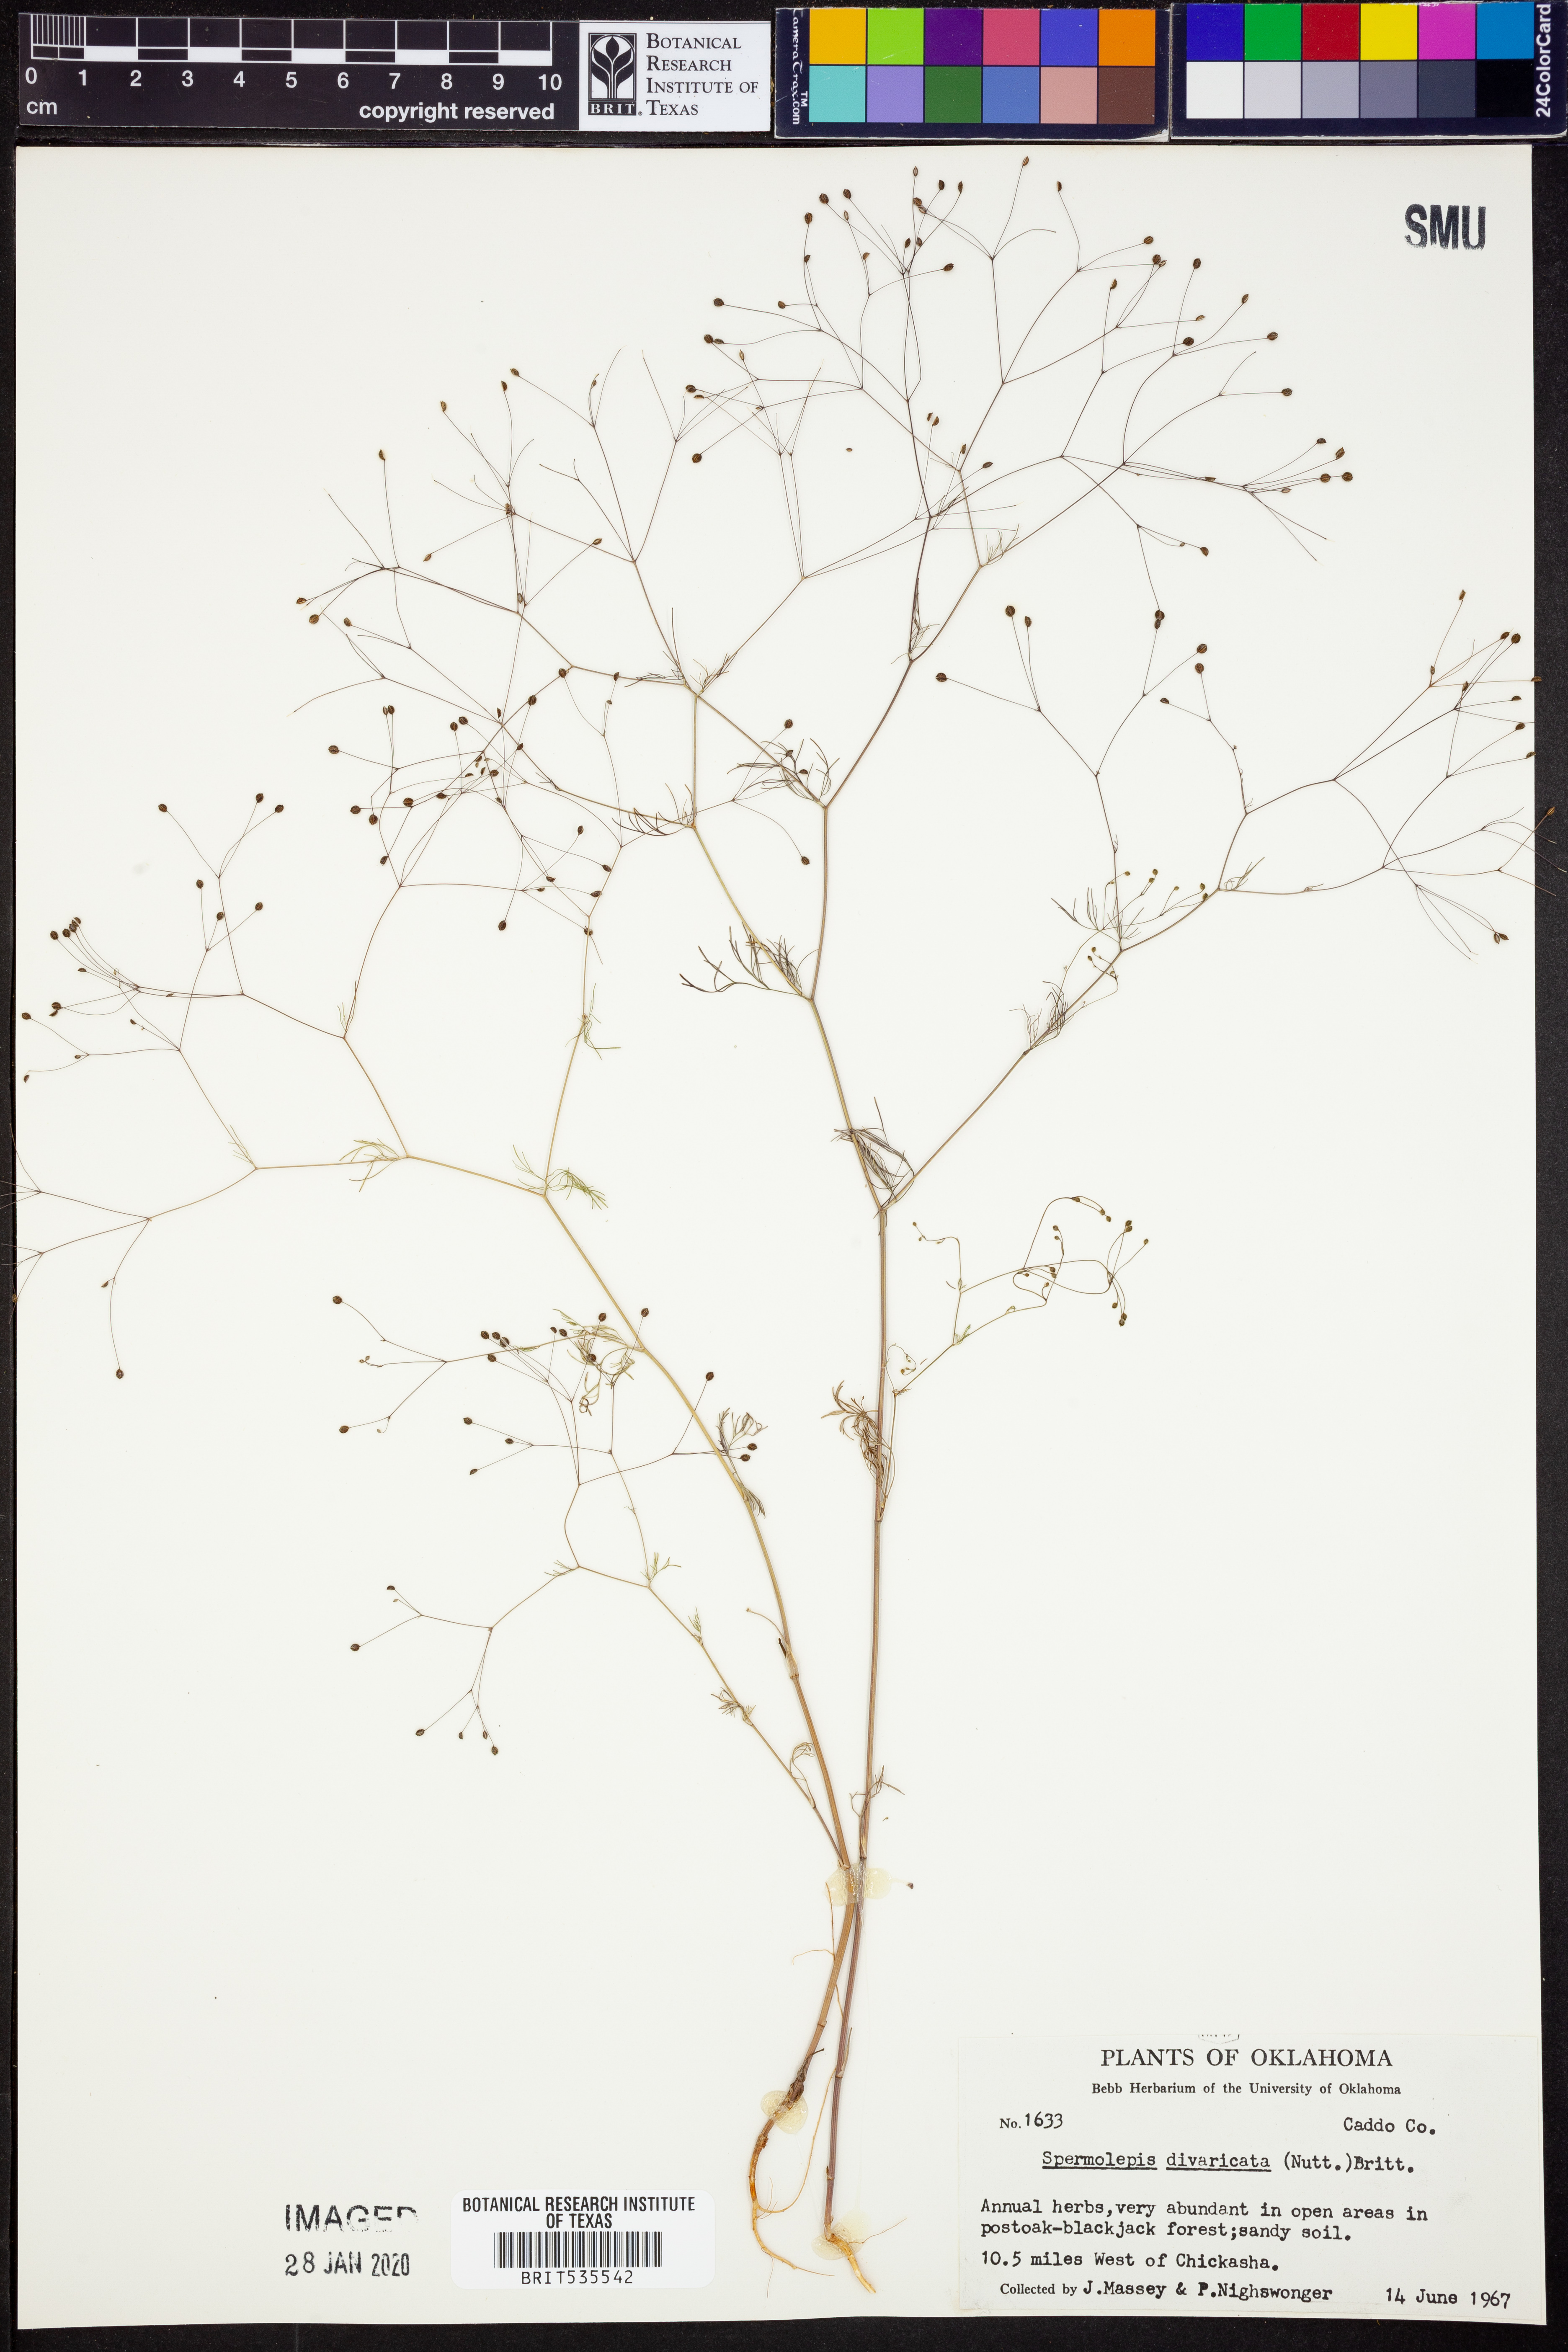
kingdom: Plantae
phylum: Tracheophyta
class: Magnoliopsida
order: Apiales
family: Apiaceae
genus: Spermolepis
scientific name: Spermolepis divaricata
